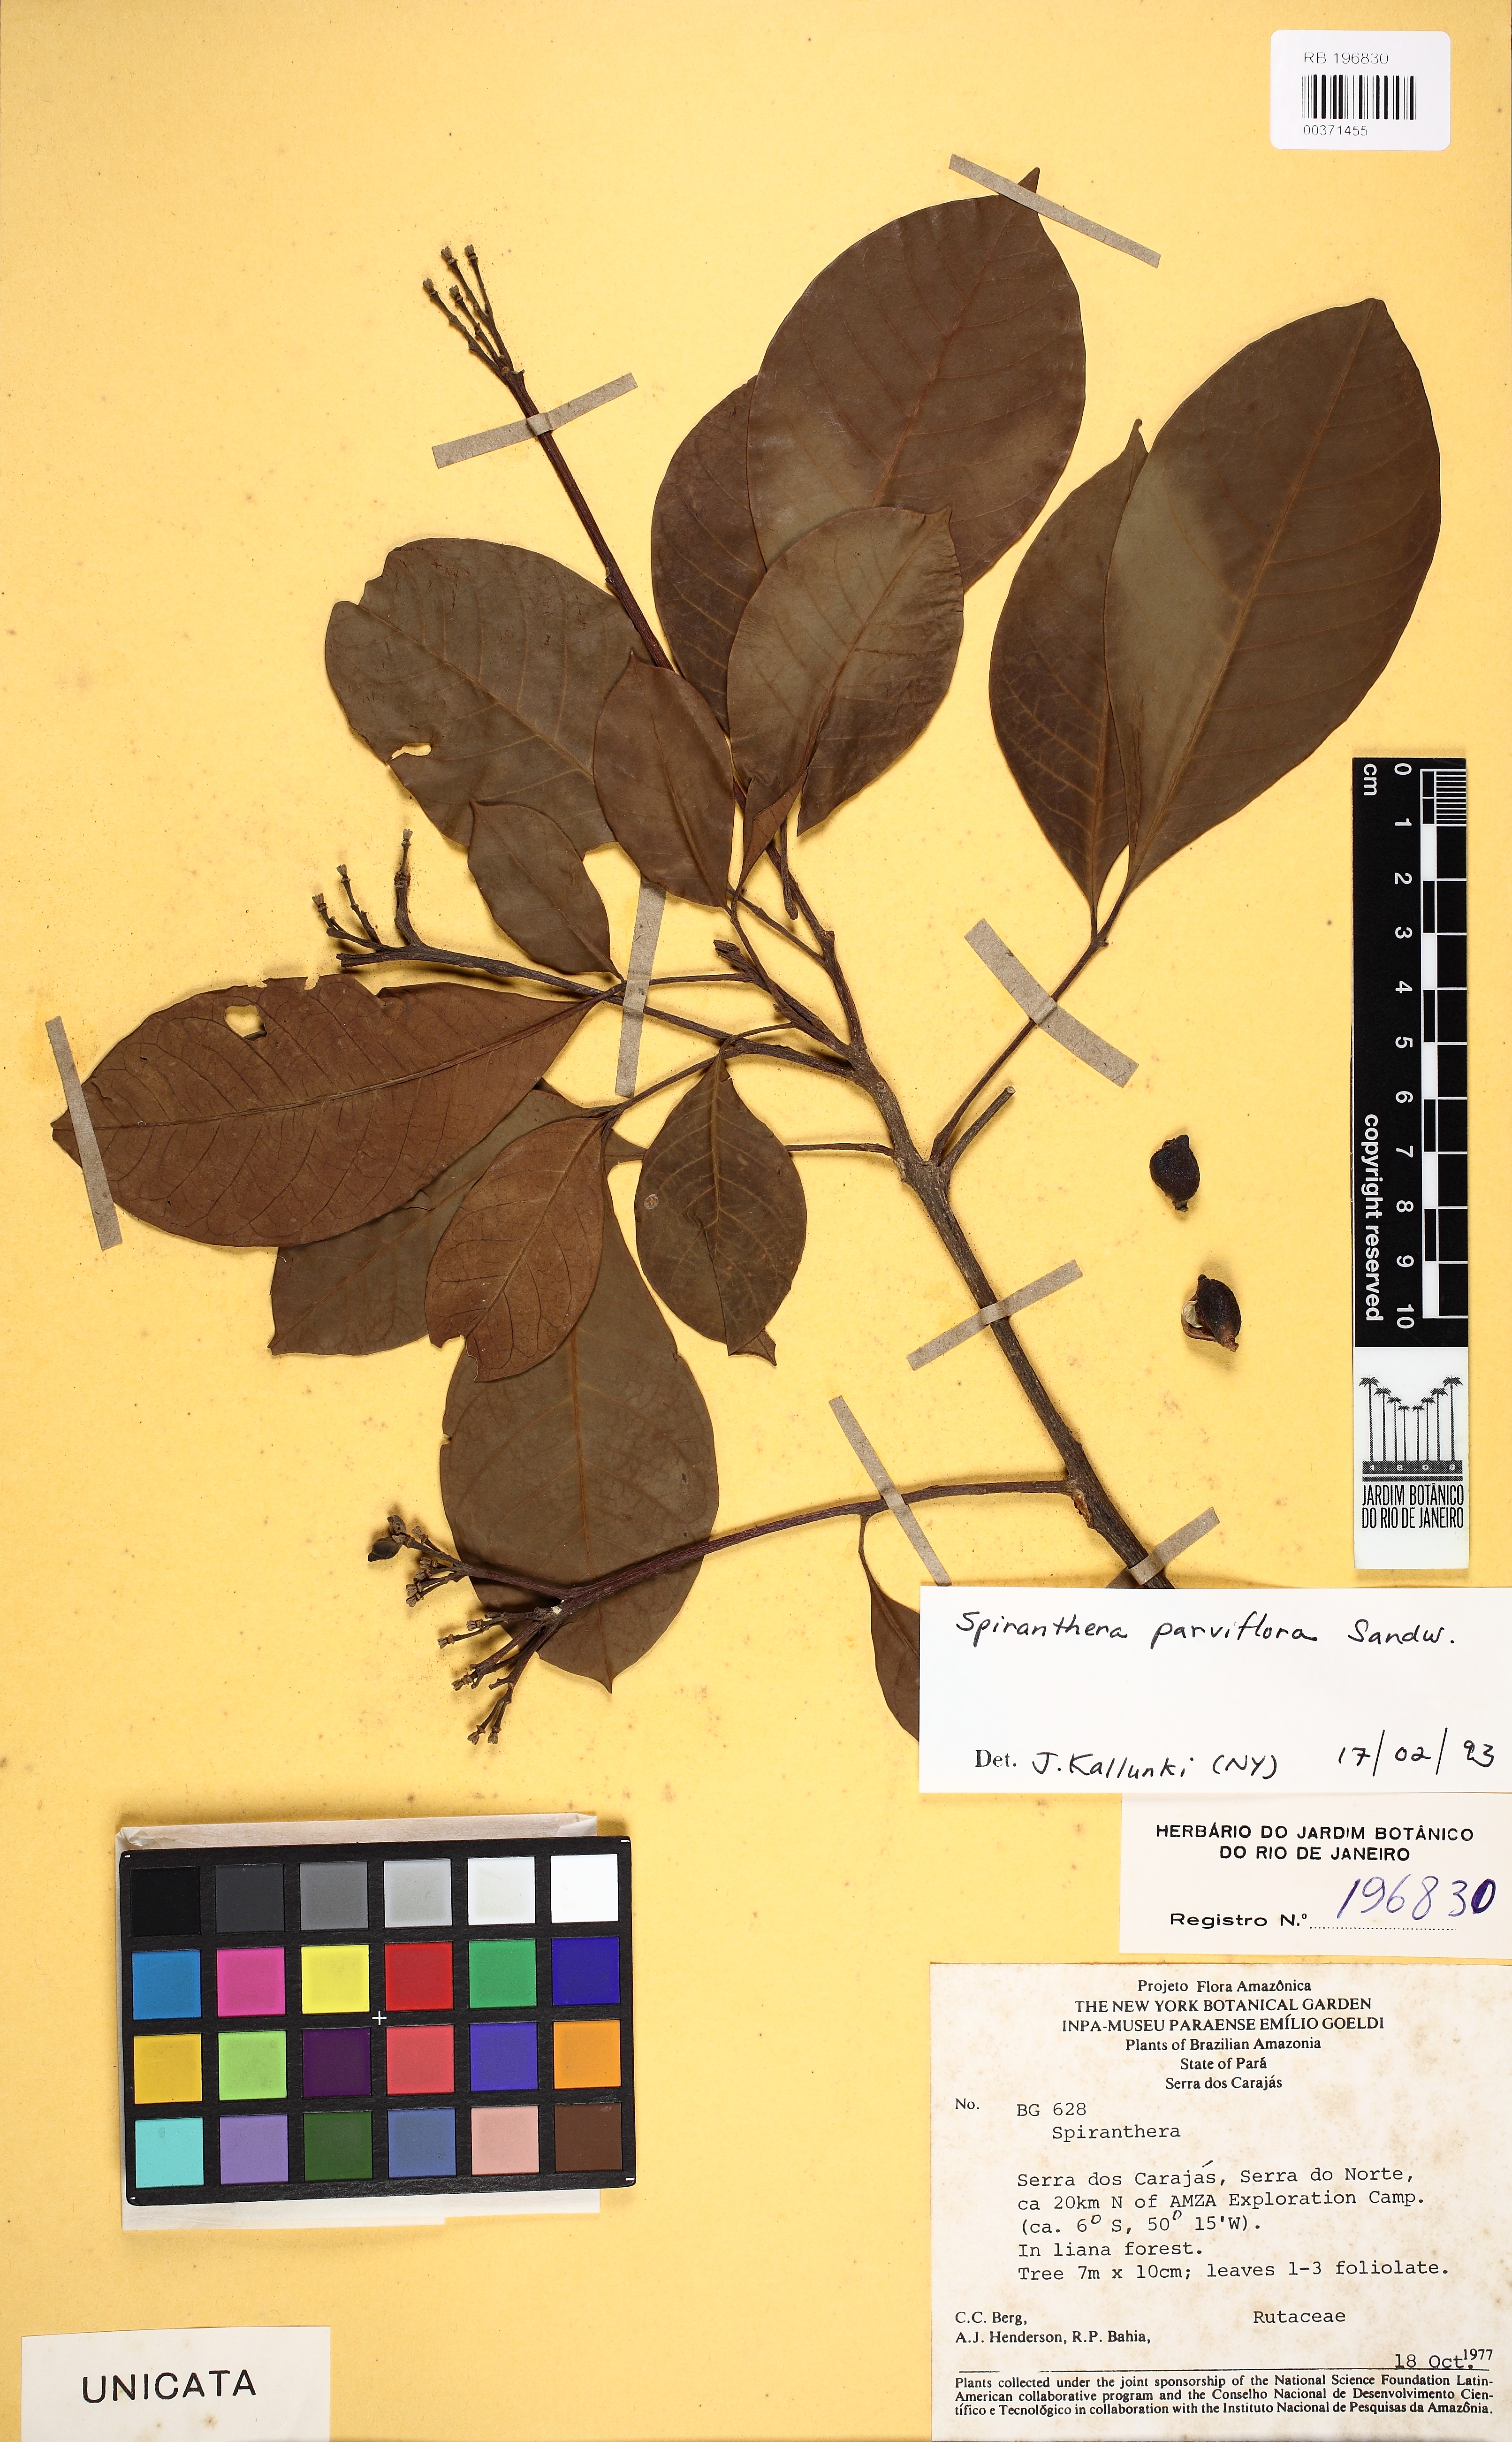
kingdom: Plantae
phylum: Tracheophyta
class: Magnoliopsida
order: Sapindales
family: Rutaceae
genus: Spiranthera
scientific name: Spiranthera parviflora
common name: Mamuri bali
